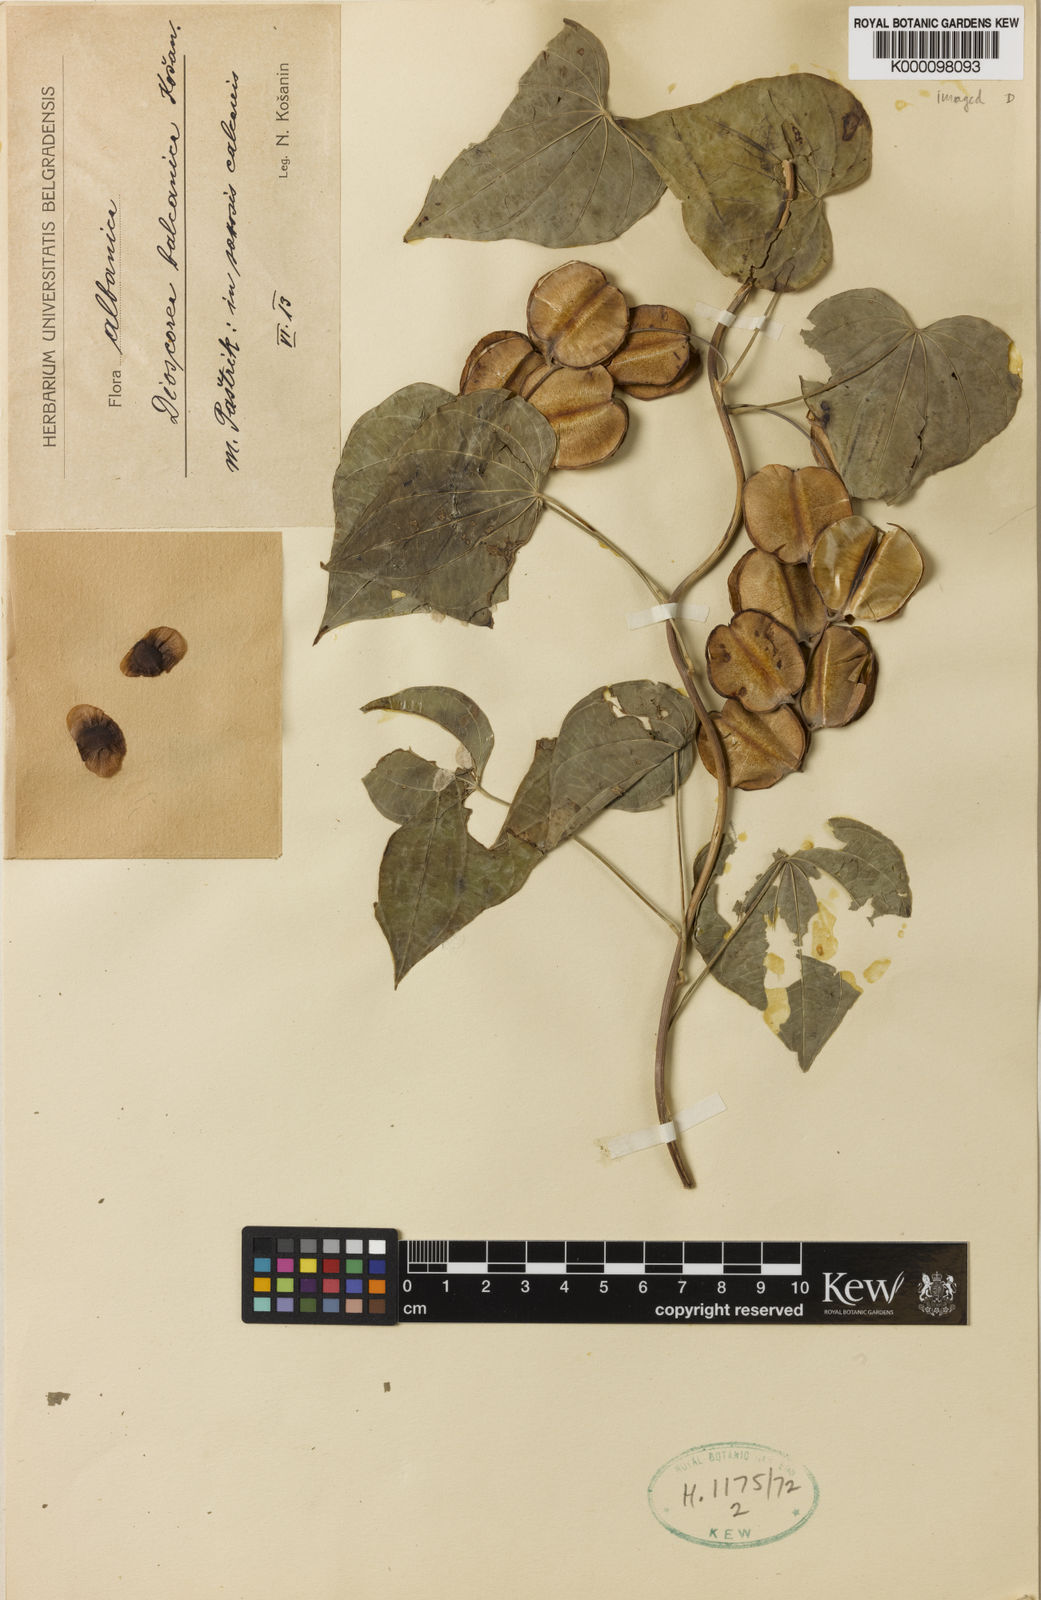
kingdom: Plantae
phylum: Tracheophyta
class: Liliopsida
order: Dioscoreales
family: Dioscoreaceae
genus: Dioscorea
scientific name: Dioscorea
